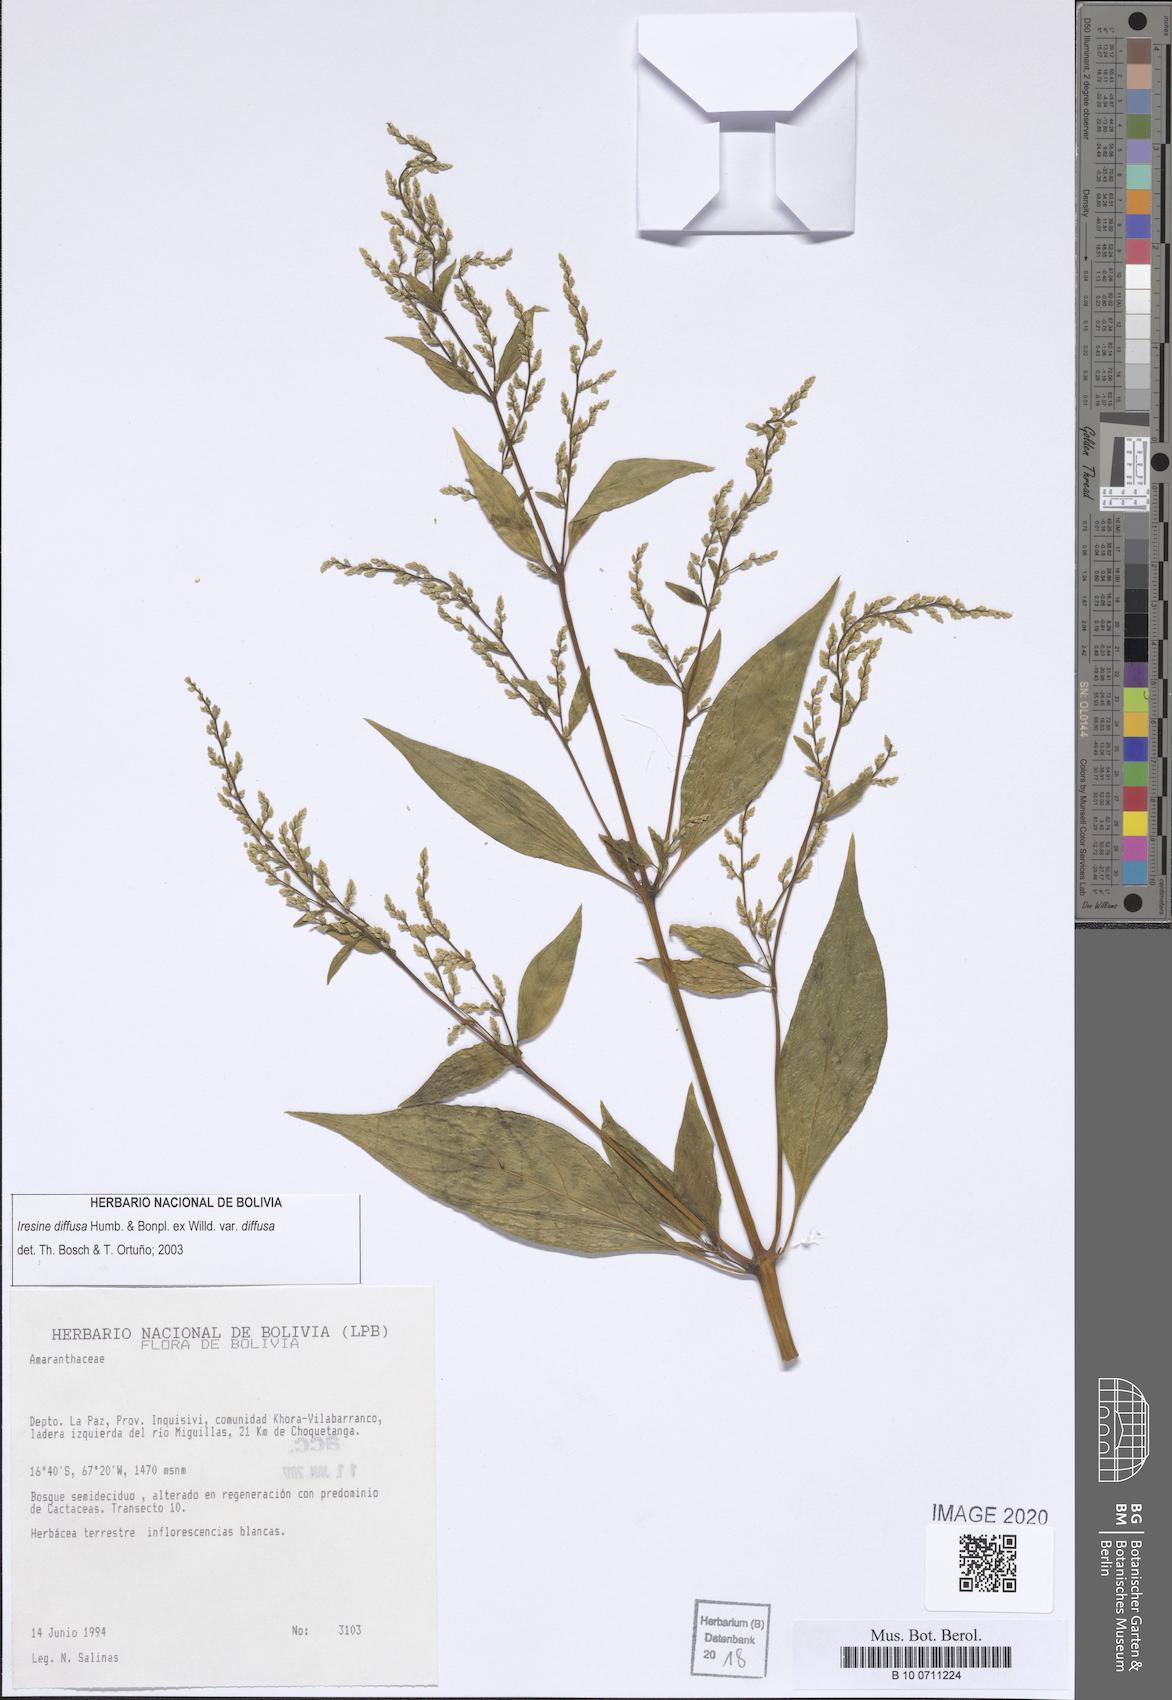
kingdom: Plantae
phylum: Tracheophyta
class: Magnoliopsida
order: Caryophyllales
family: Amaranthaceae
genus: Iresine
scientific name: Iresine diffusa
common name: Juba's-bush
